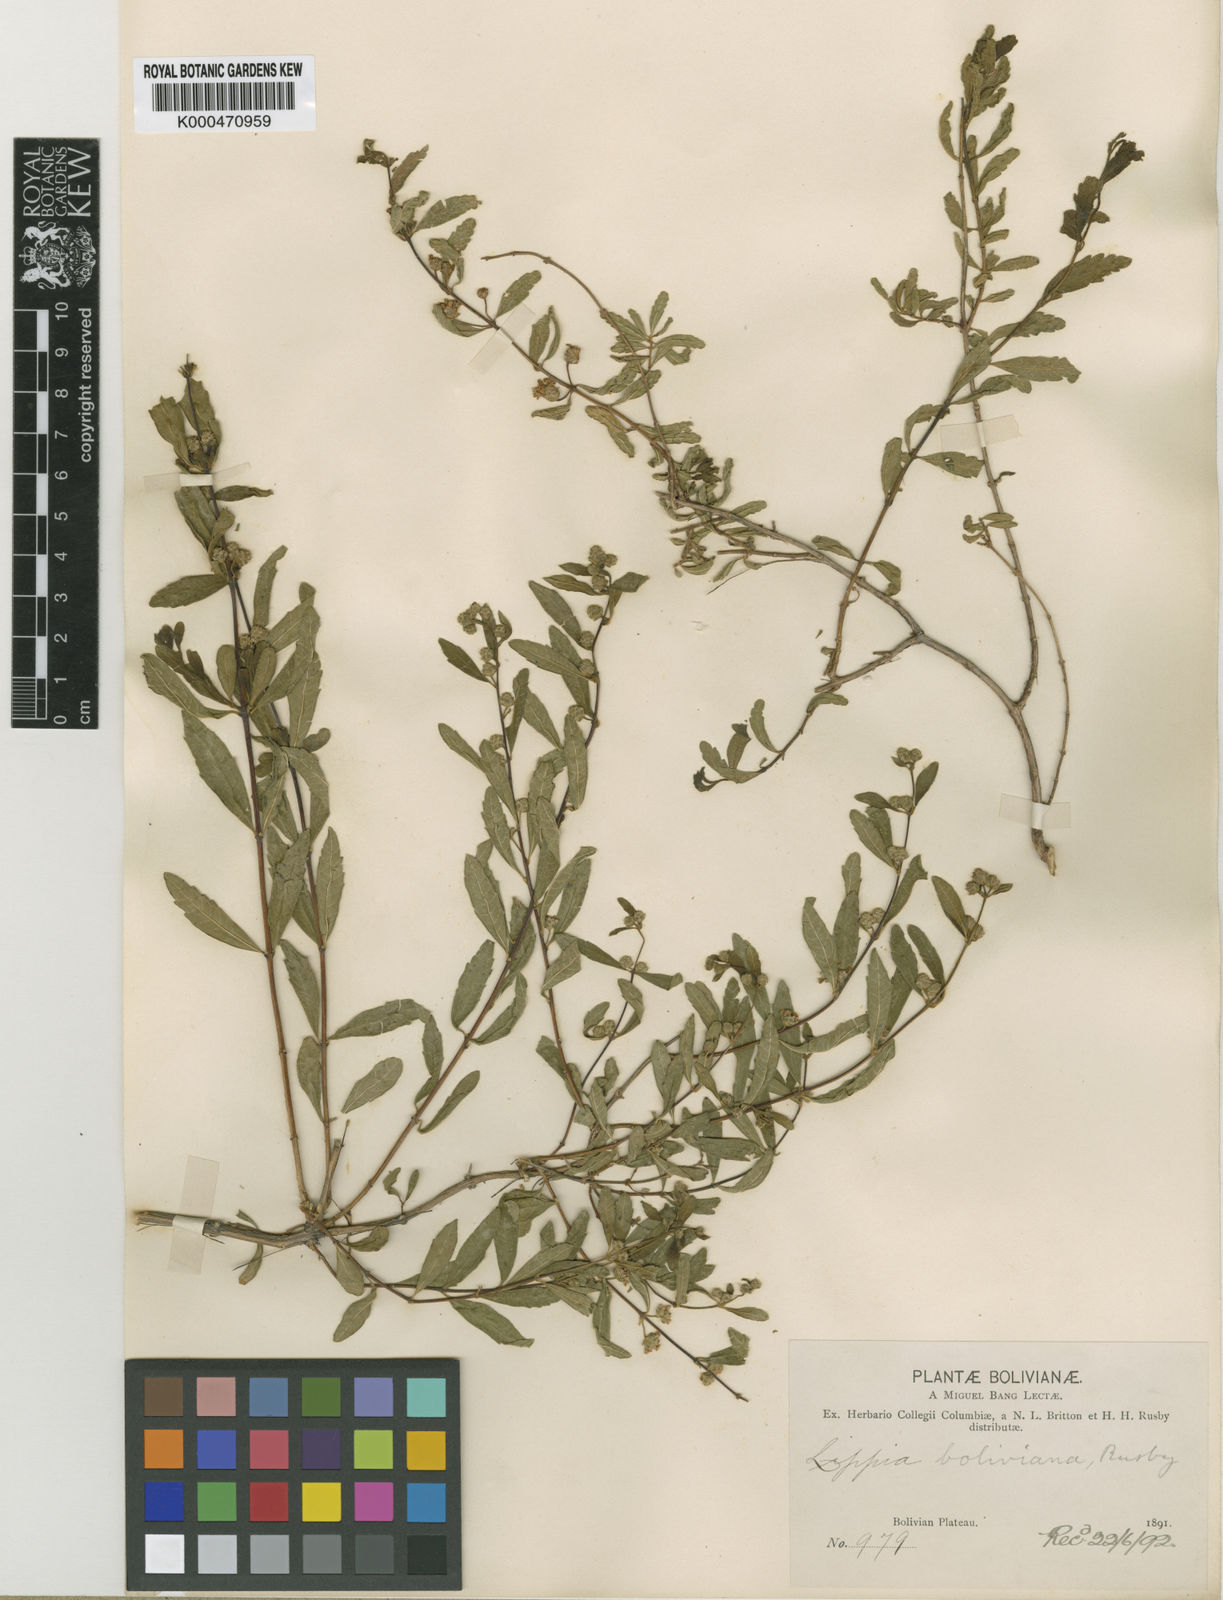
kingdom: Plantae
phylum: Tracheophyta
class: Magnoliopsida
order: Lamiales
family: Verbenaceae
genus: Lippia
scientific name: Lippia integrifolia
